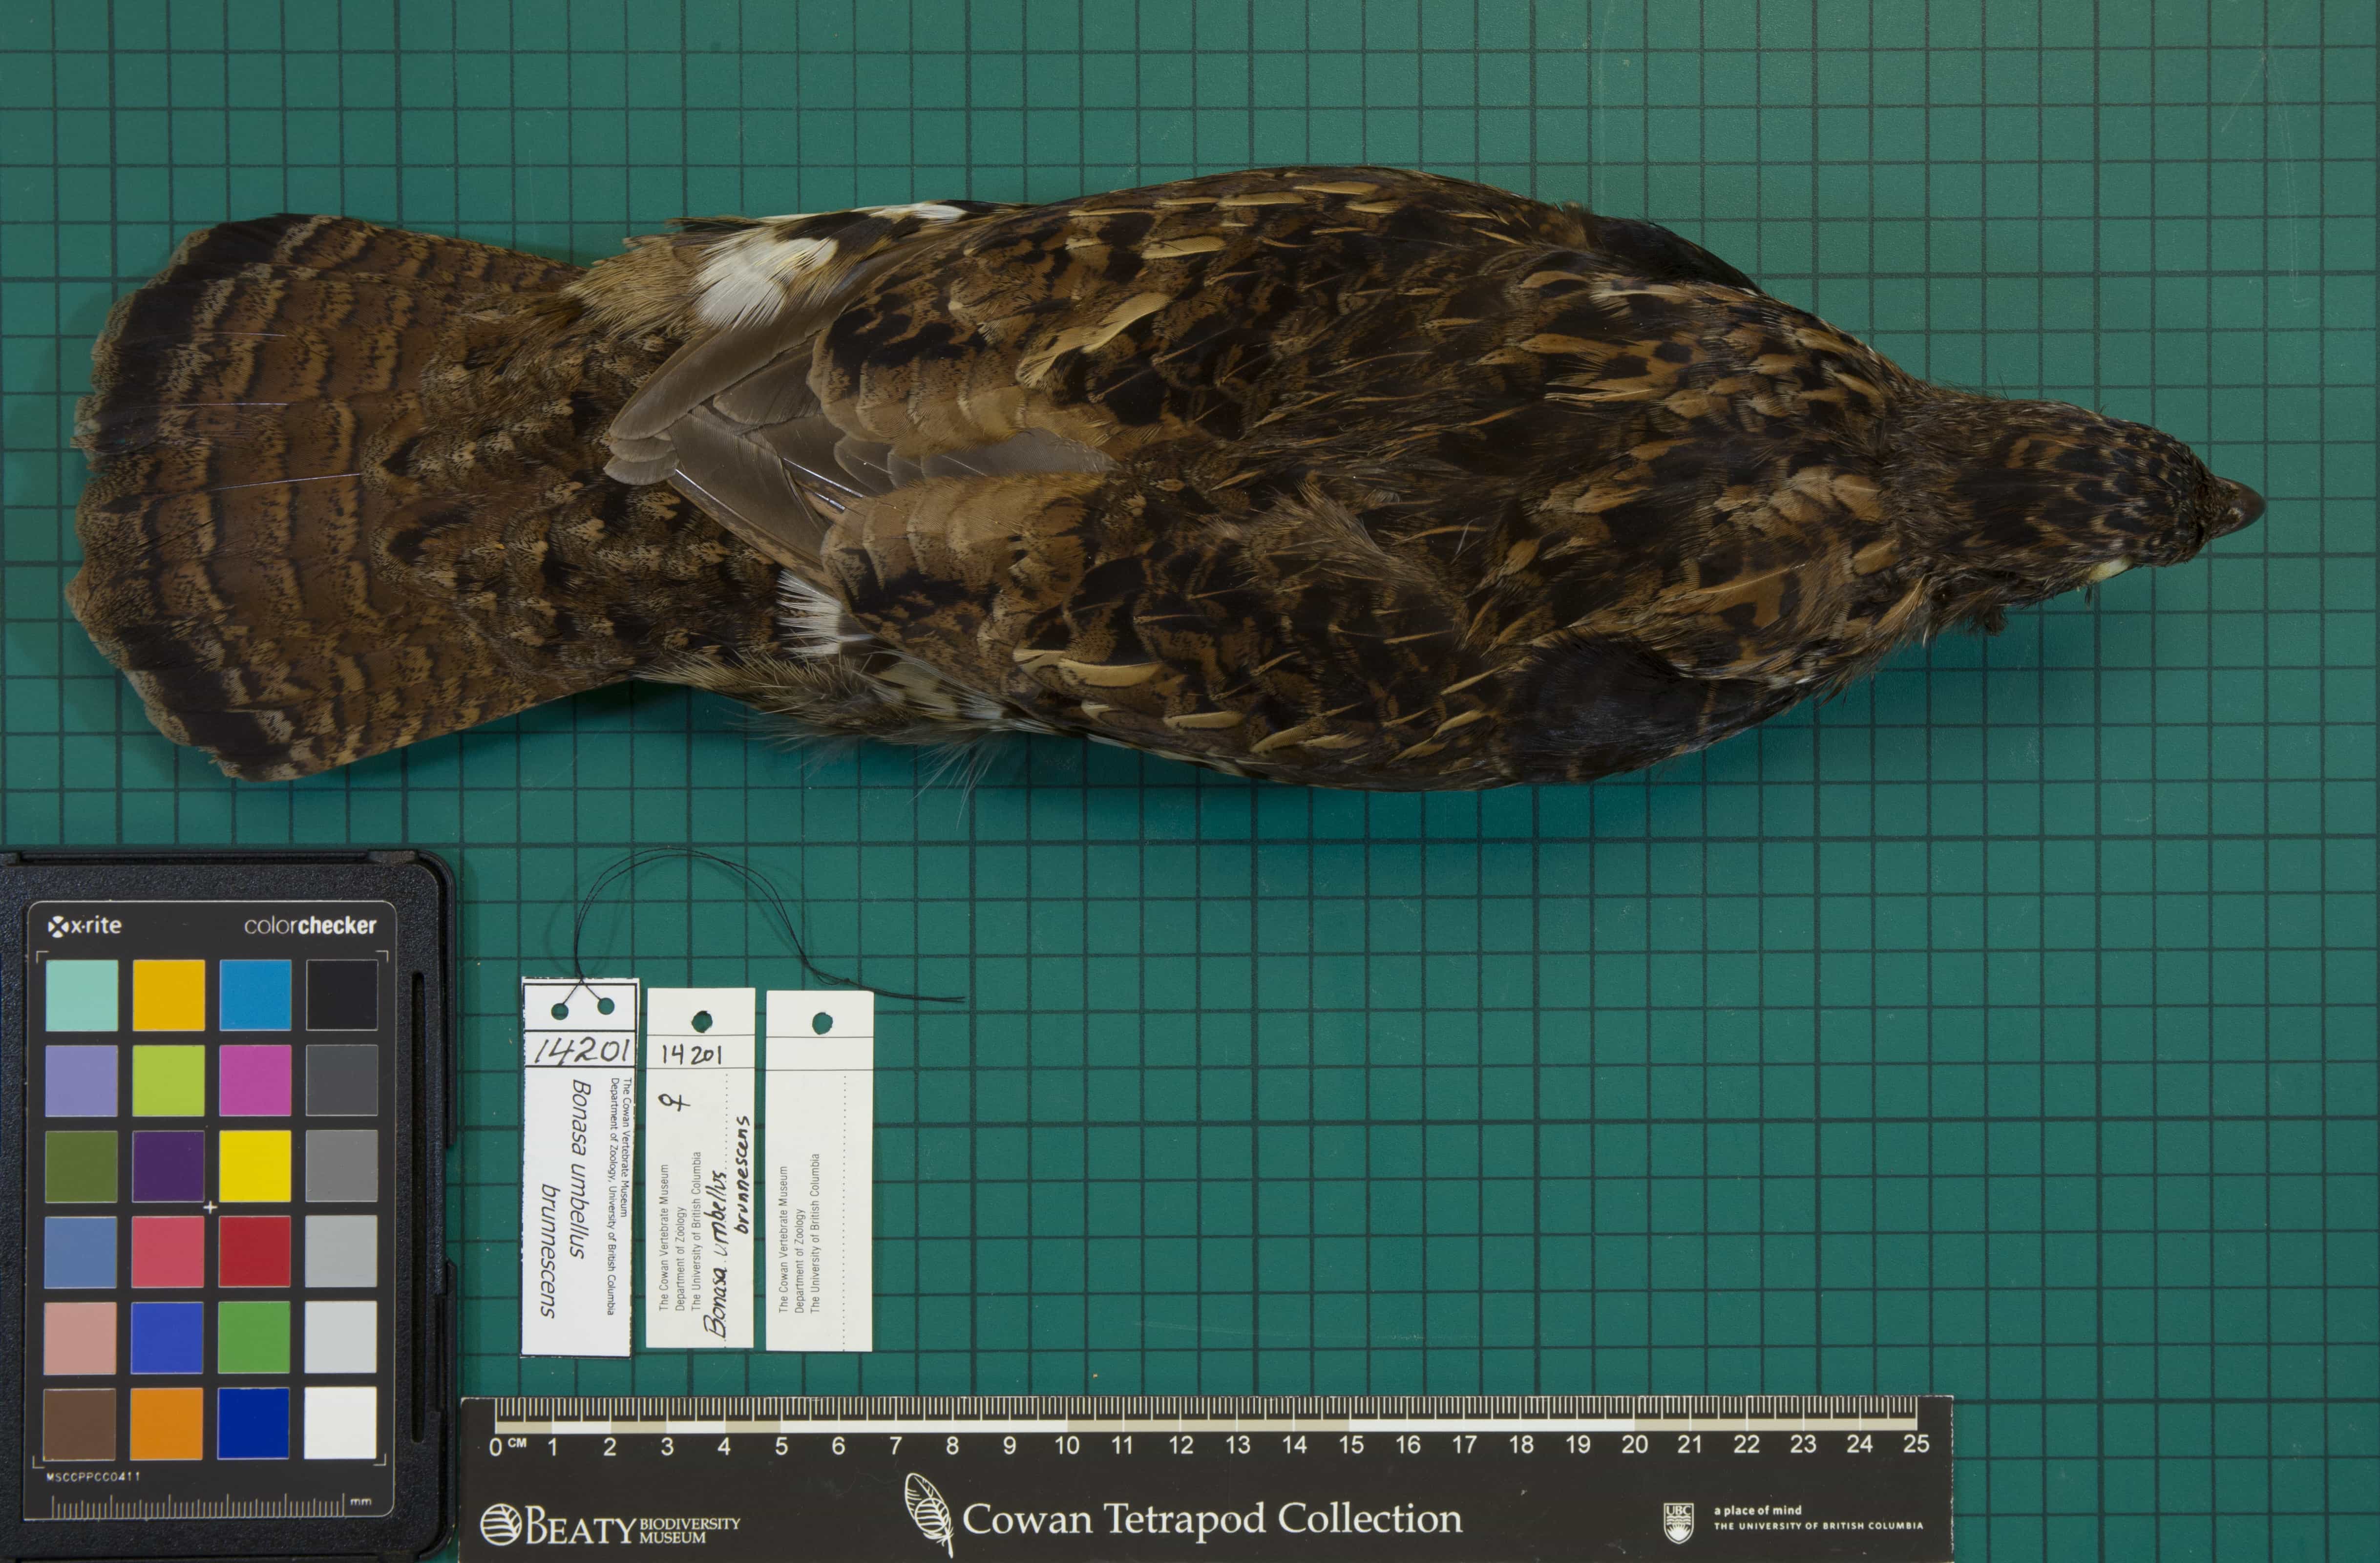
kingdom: Animalia
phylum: Chordata
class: Aves
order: Galliformes
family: Phasianidae
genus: Bonasa
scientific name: Bonasa umbellus
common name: Ruffed Grouse
